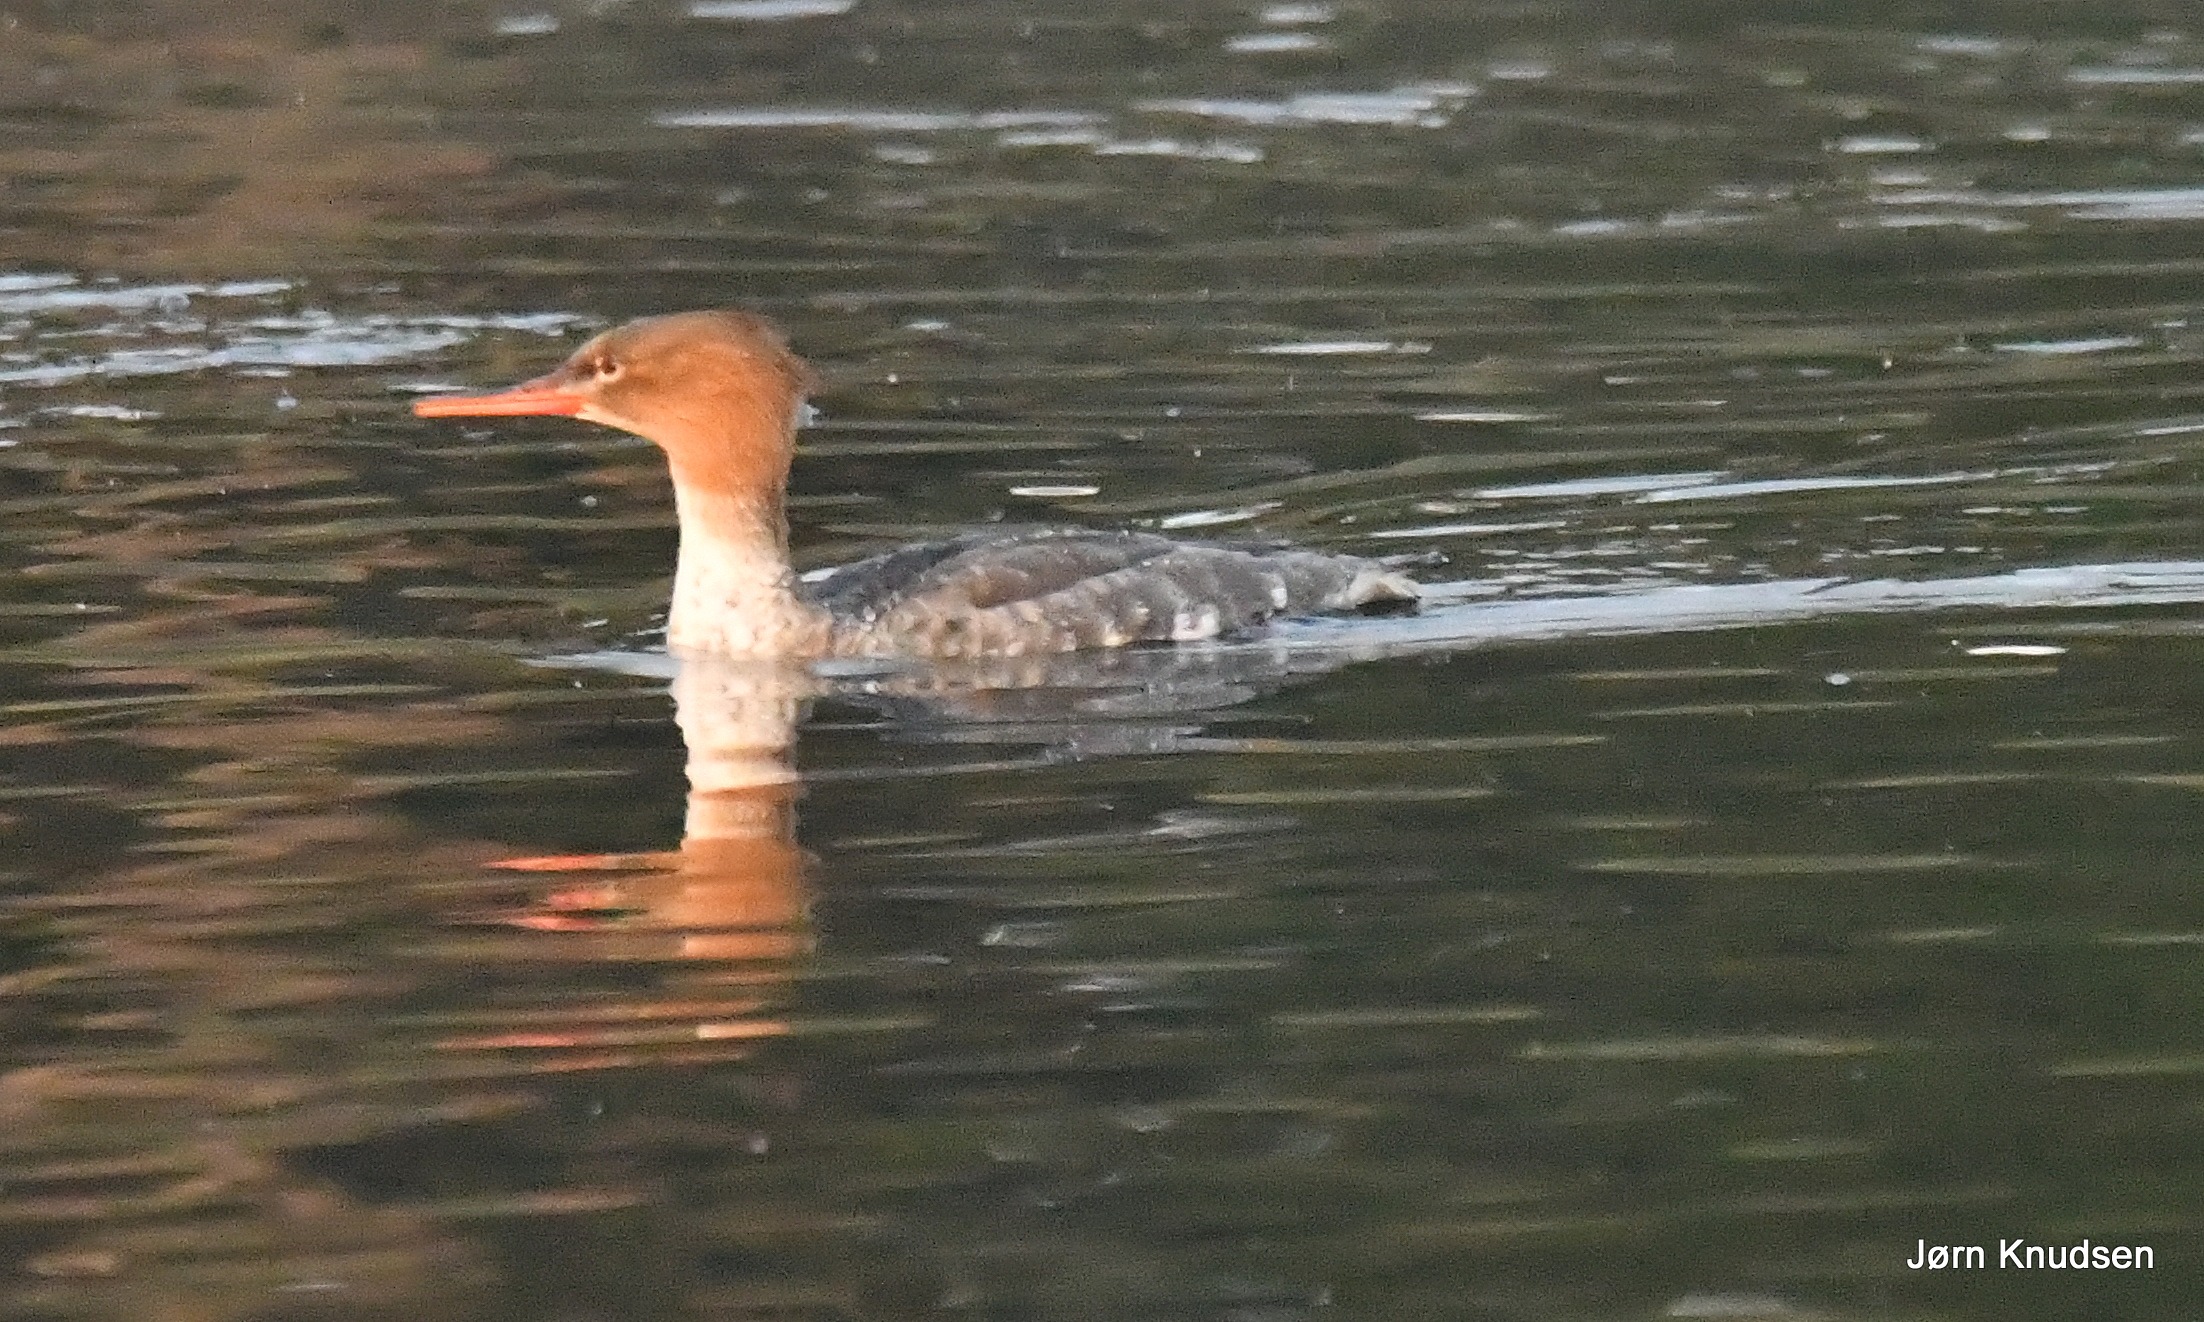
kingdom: Animalia
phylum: Chordata
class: Aves
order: Anseriformes
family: Anatidae
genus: Mergus
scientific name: Mergus serrator
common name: Toppet skallesluger
